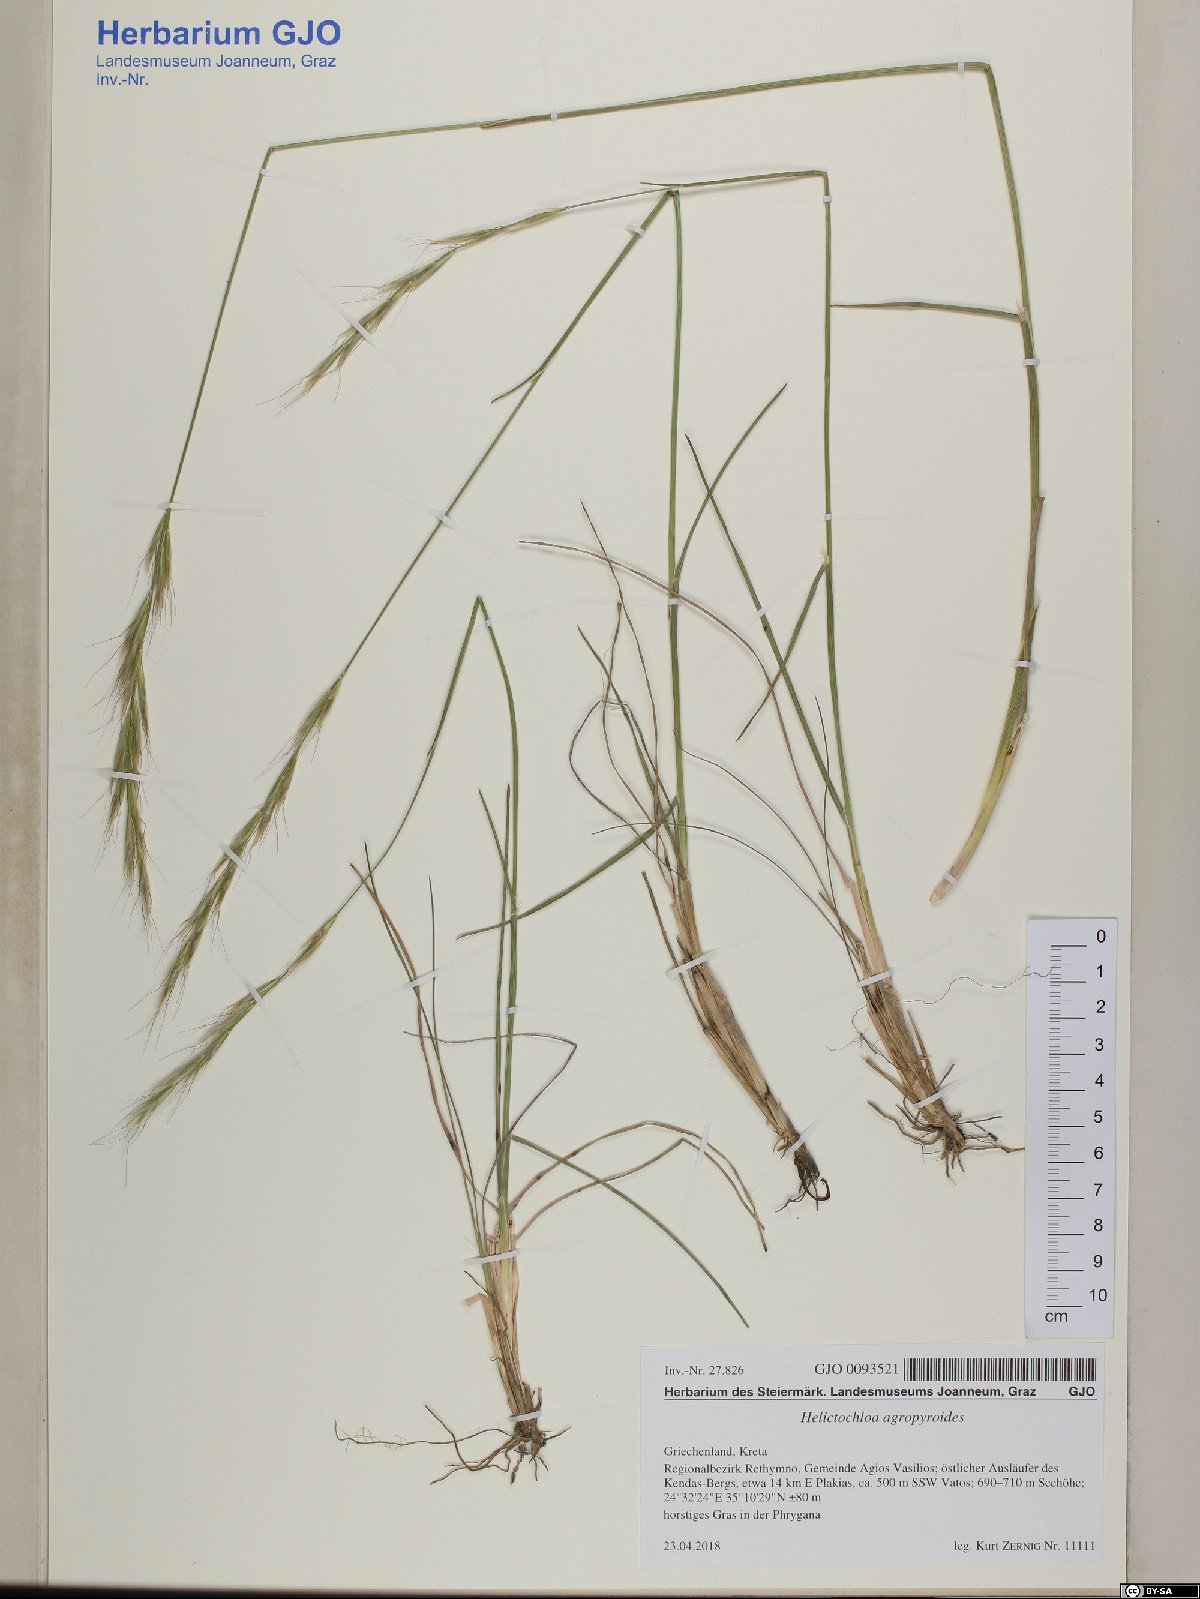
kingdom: Plantae
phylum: Tracheophyta
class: Liliopsida
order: Poales
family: Poaceae
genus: Helictochloa
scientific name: Helictochloa agropyroides
